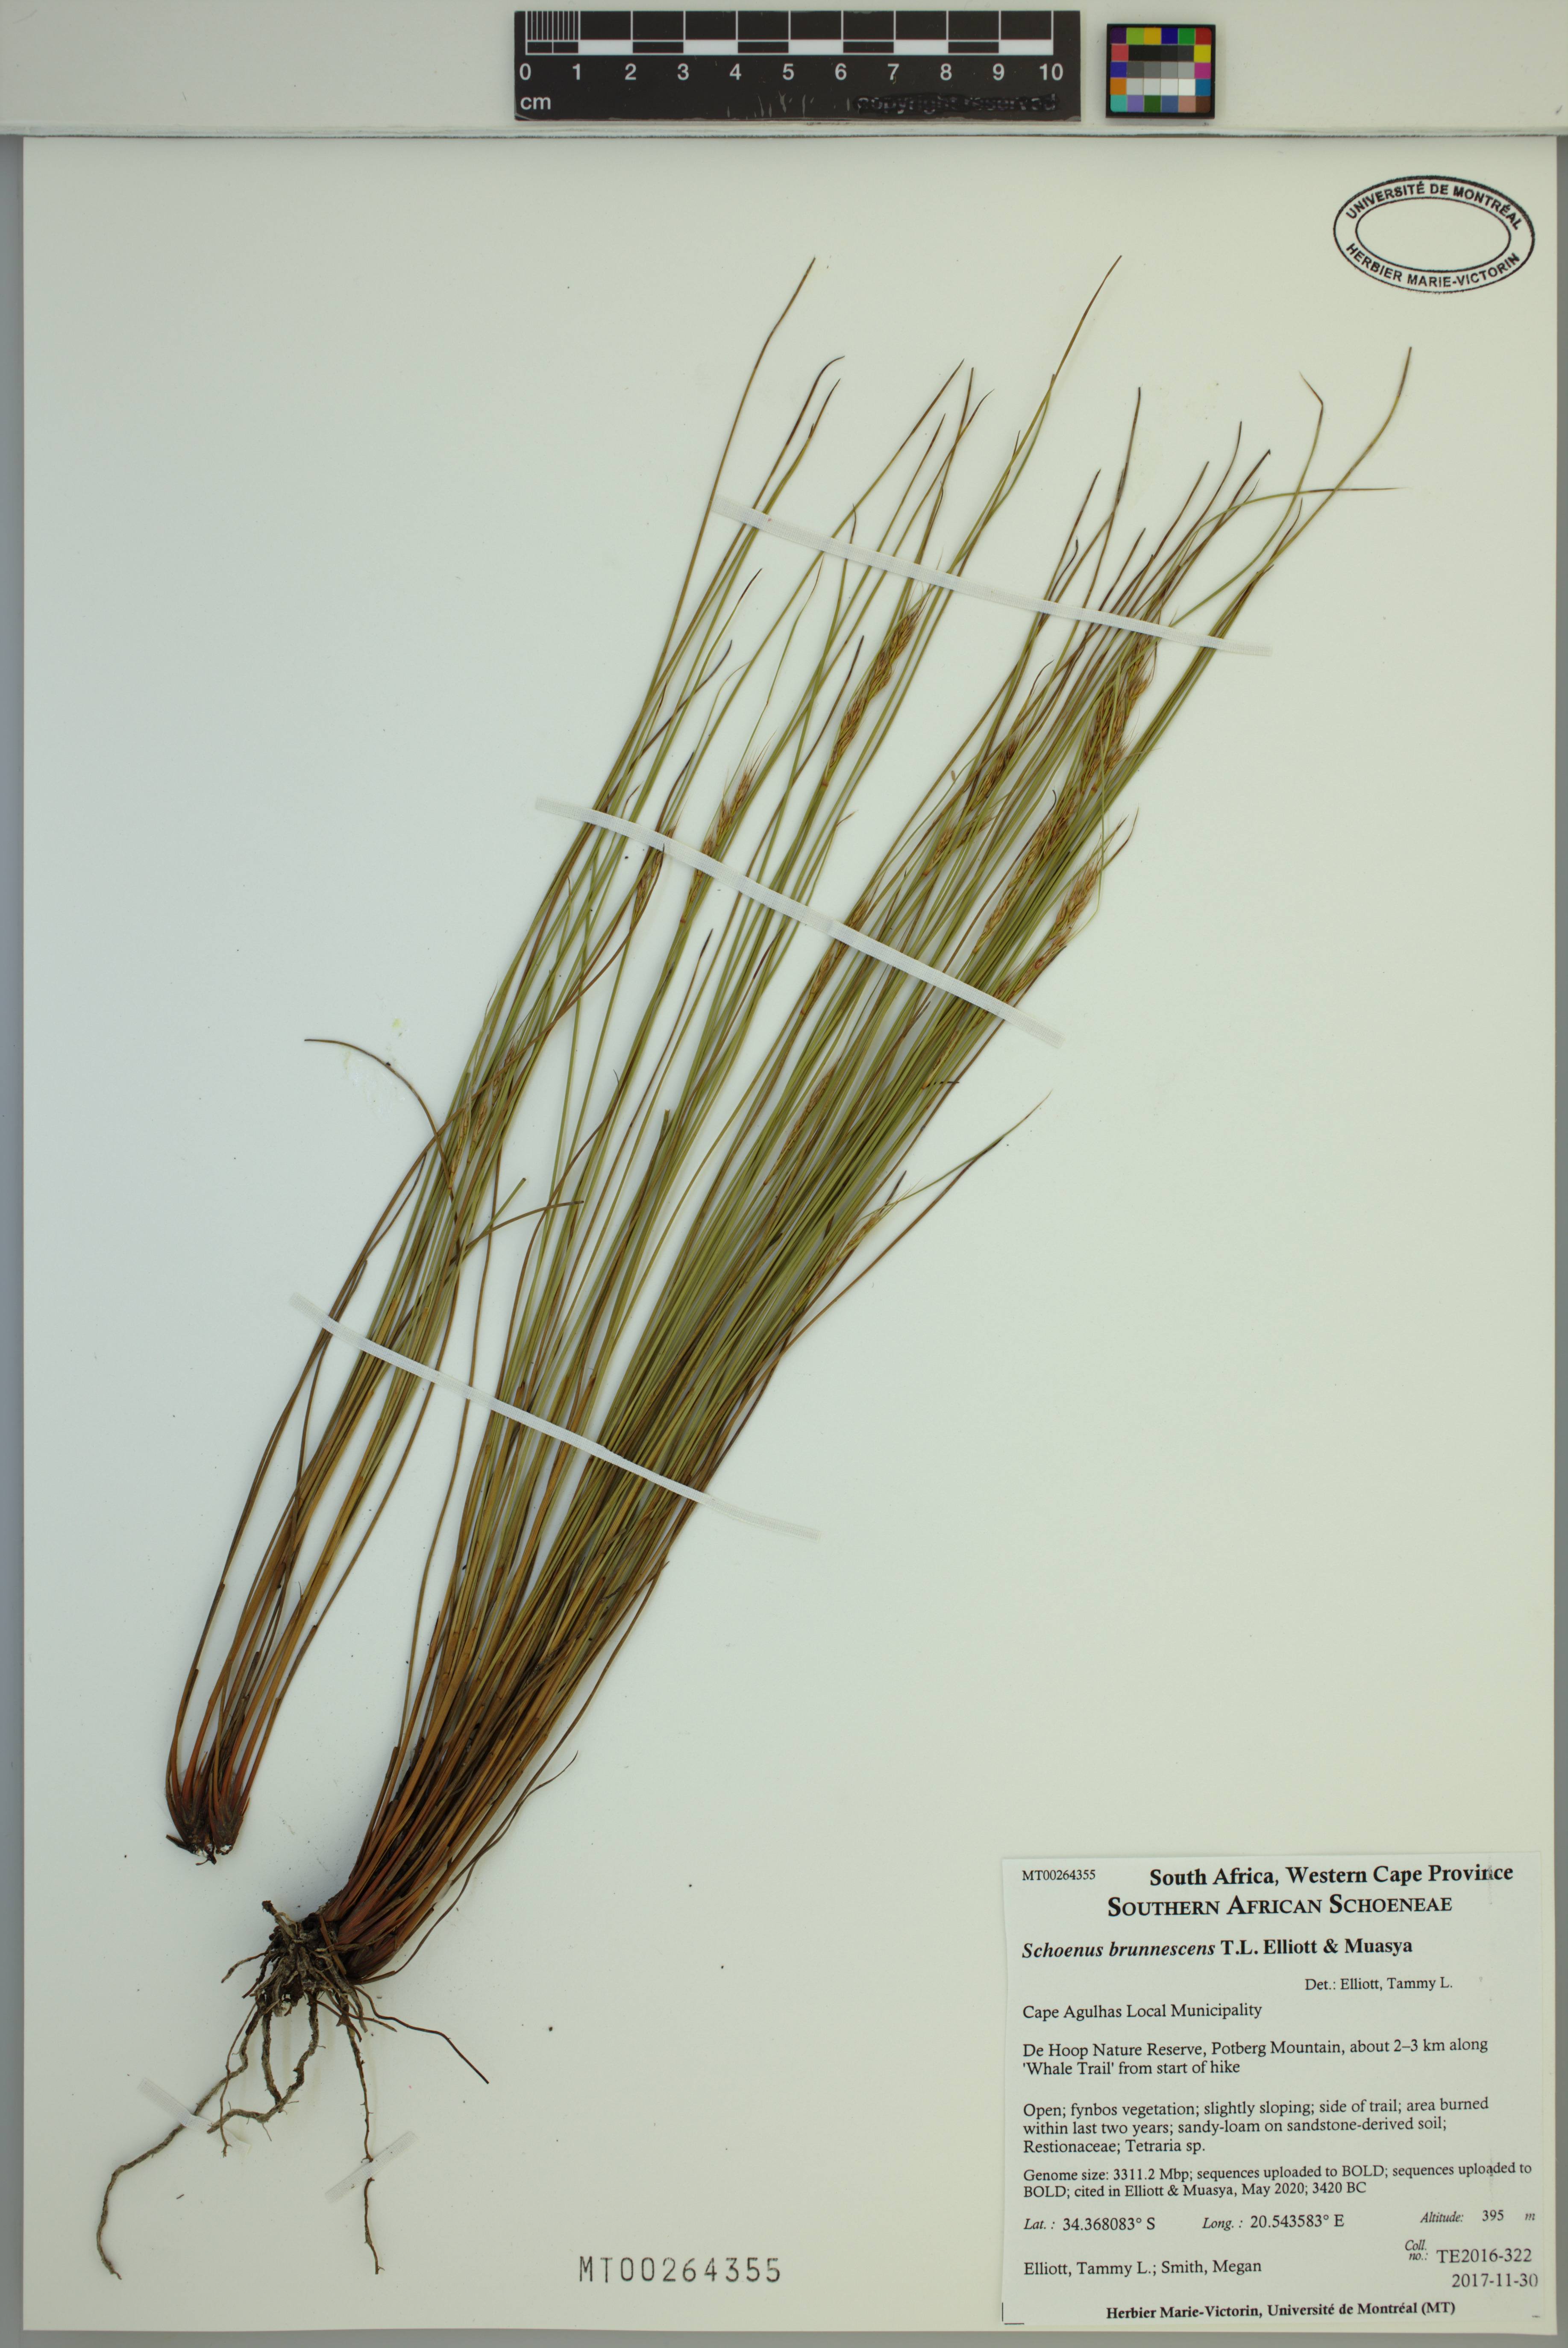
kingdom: Plantae
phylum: Tracheophyta
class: Liliopsida
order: Poales
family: Cyperaceae
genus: Schoenus
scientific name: Schoenus brunnescens
